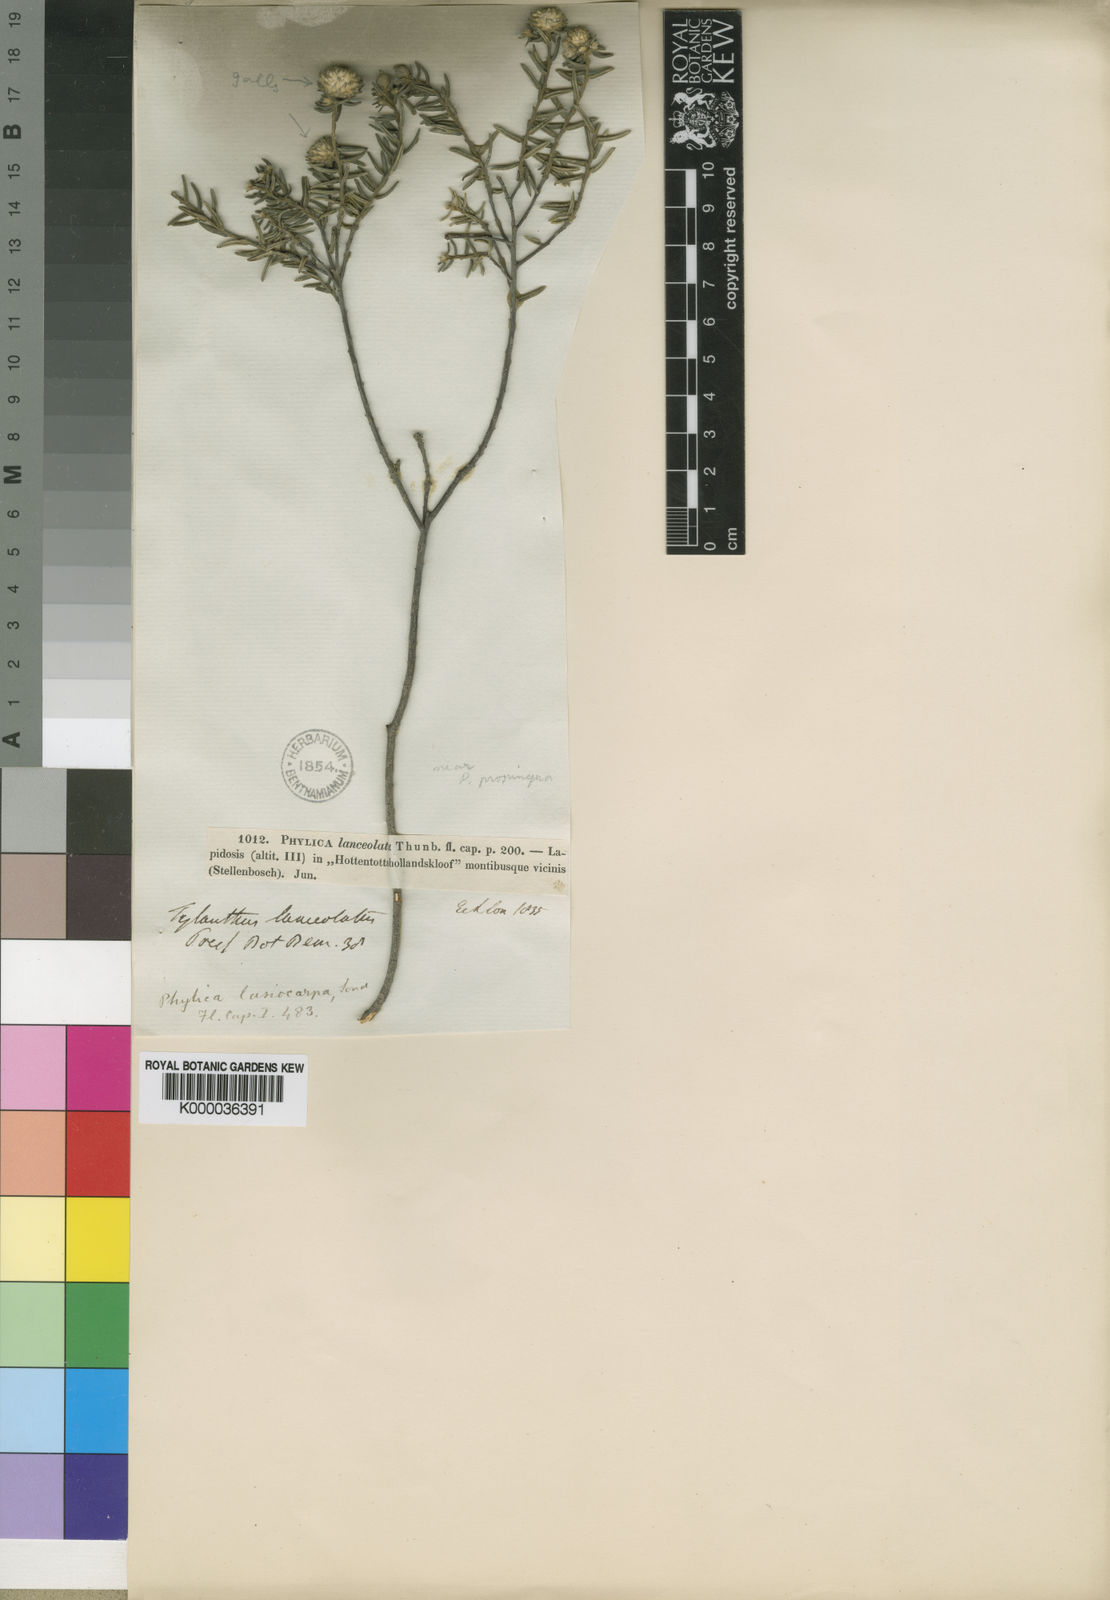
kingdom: Plantae
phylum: Tracheophyta
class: Magnoliopsida
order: Rosales
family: Rhamnaceae
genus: Phylica
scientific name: Phylica lasiocarpa
